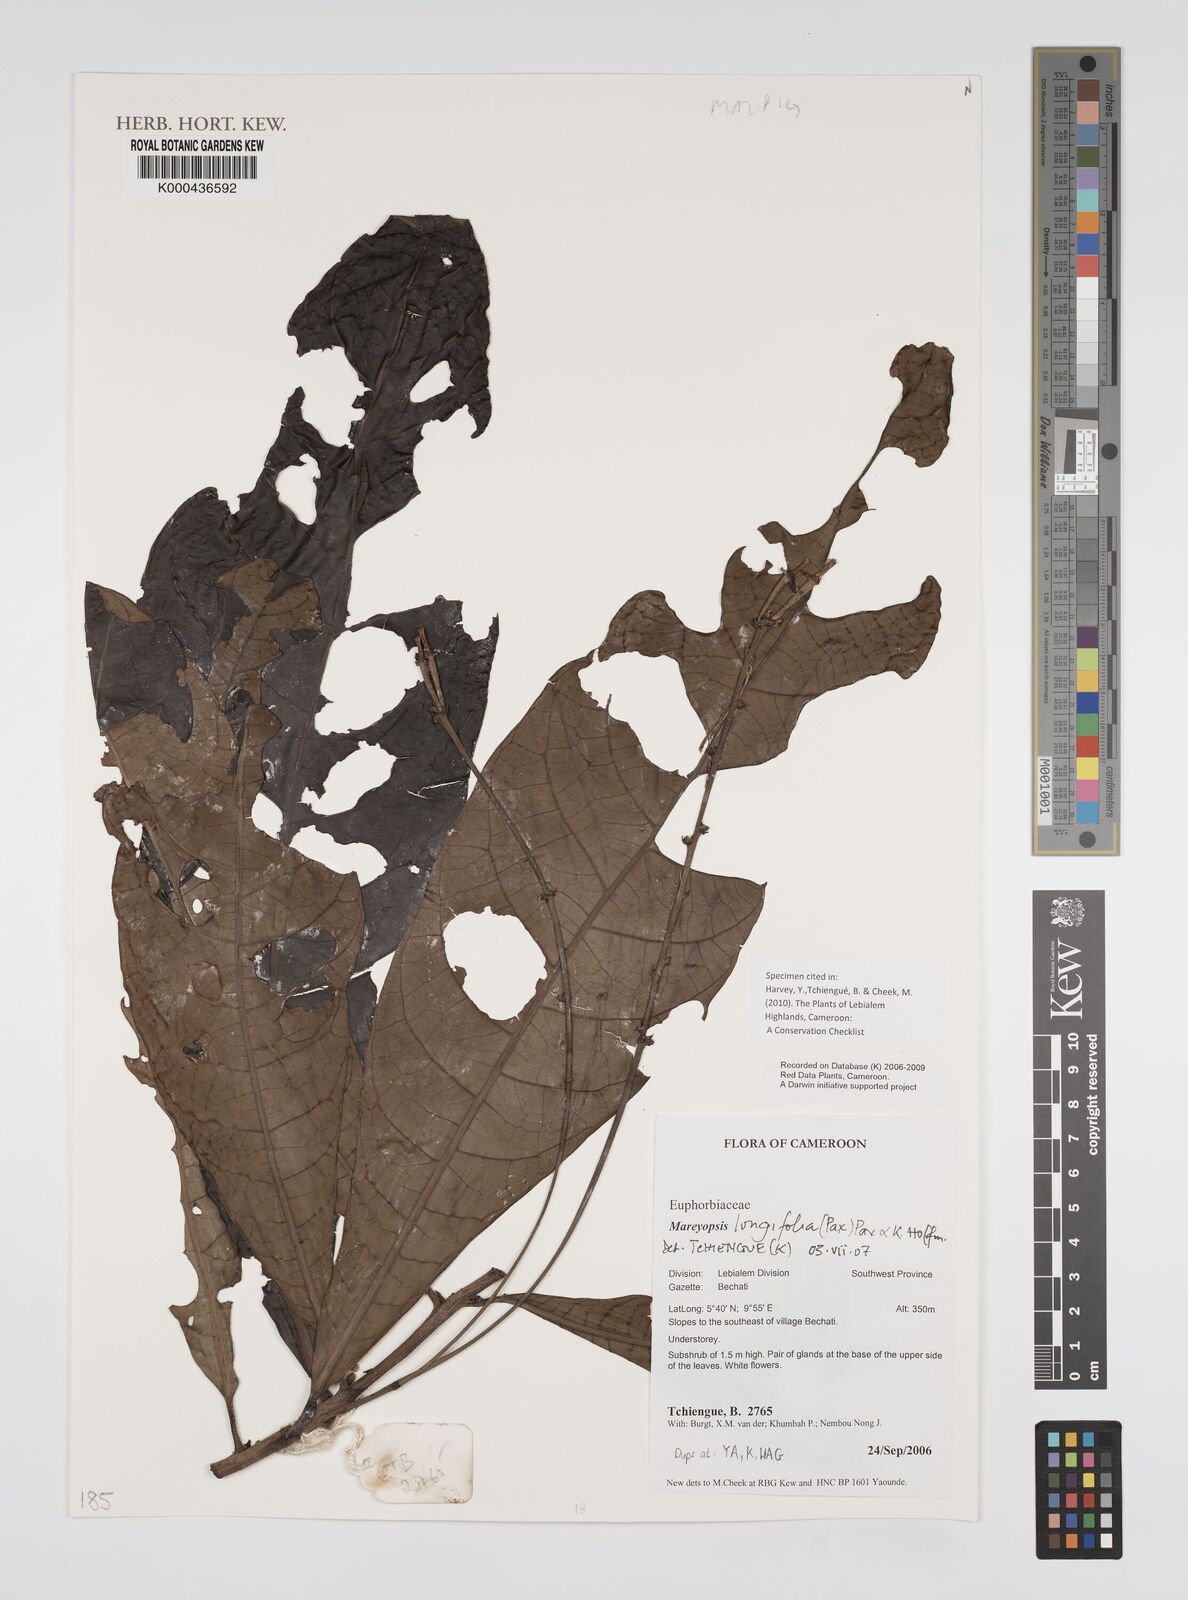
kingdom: Plantae
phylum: Tracheophyta
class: Magnoliopsida
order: Malpighiales
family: Euphorbiaceae
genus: Mareyopsis
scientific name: Mareyopsis longifolia
